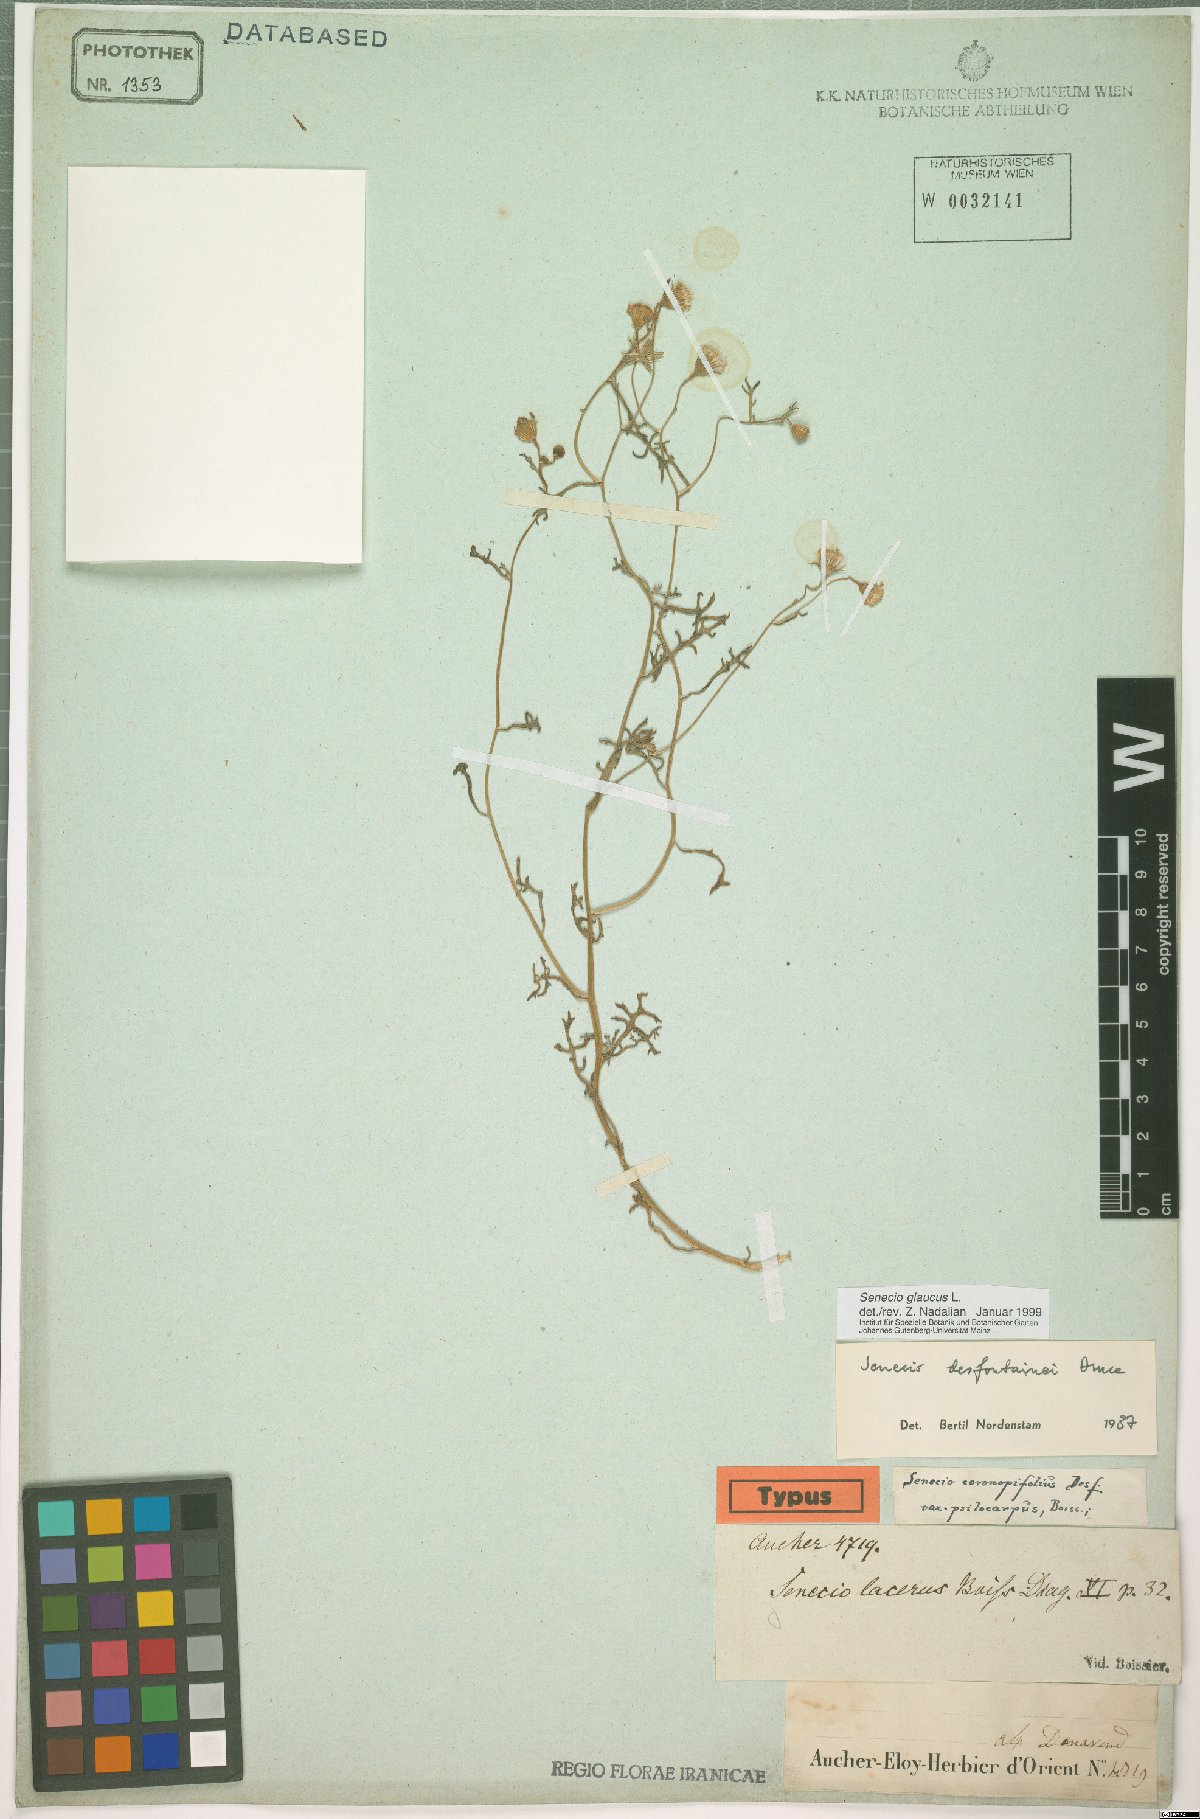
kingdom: Plantae
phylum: Tracheophyta
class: Magnoliopsida
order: Asterales
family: Asteraceae
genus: Senecio
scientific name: Senecio glaucus
